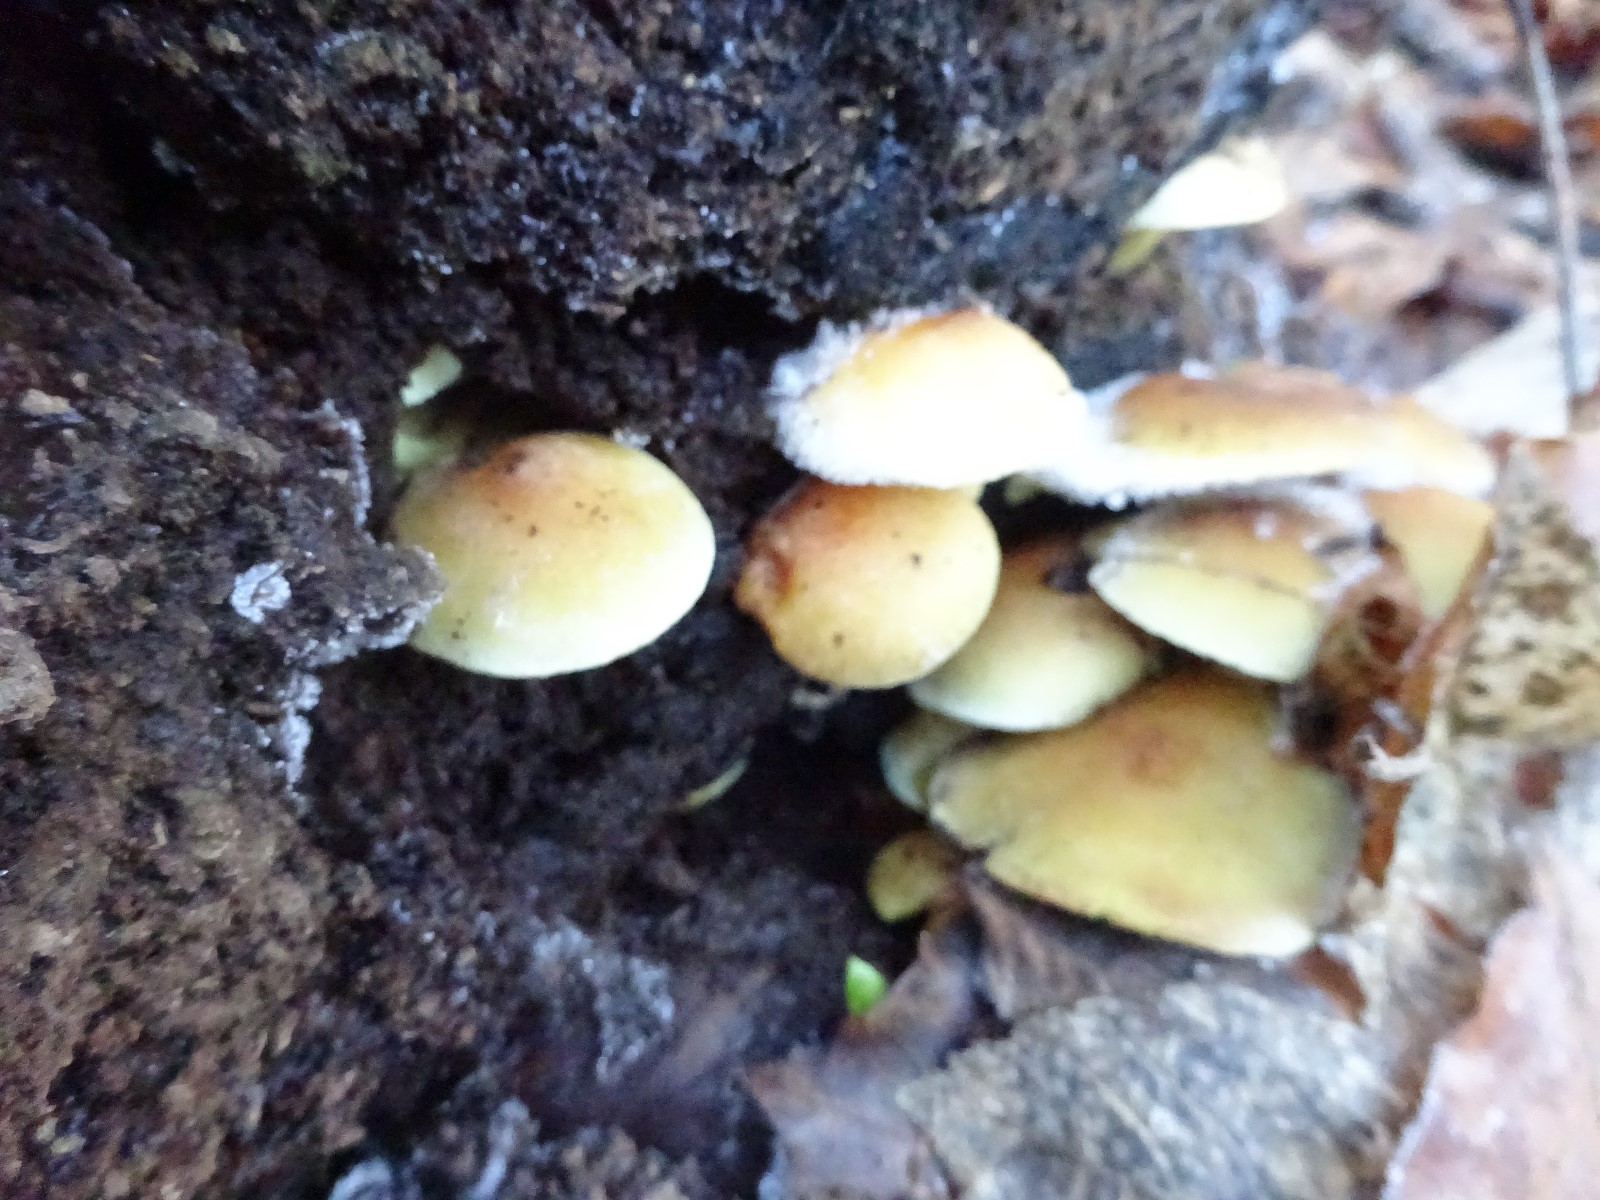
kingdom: Fungi
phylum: Basidiomycota
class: Agaricomycetes
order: Agaricales
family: Strophariaceae
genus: Hypholoma
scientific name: Hypholoma fasciculare
